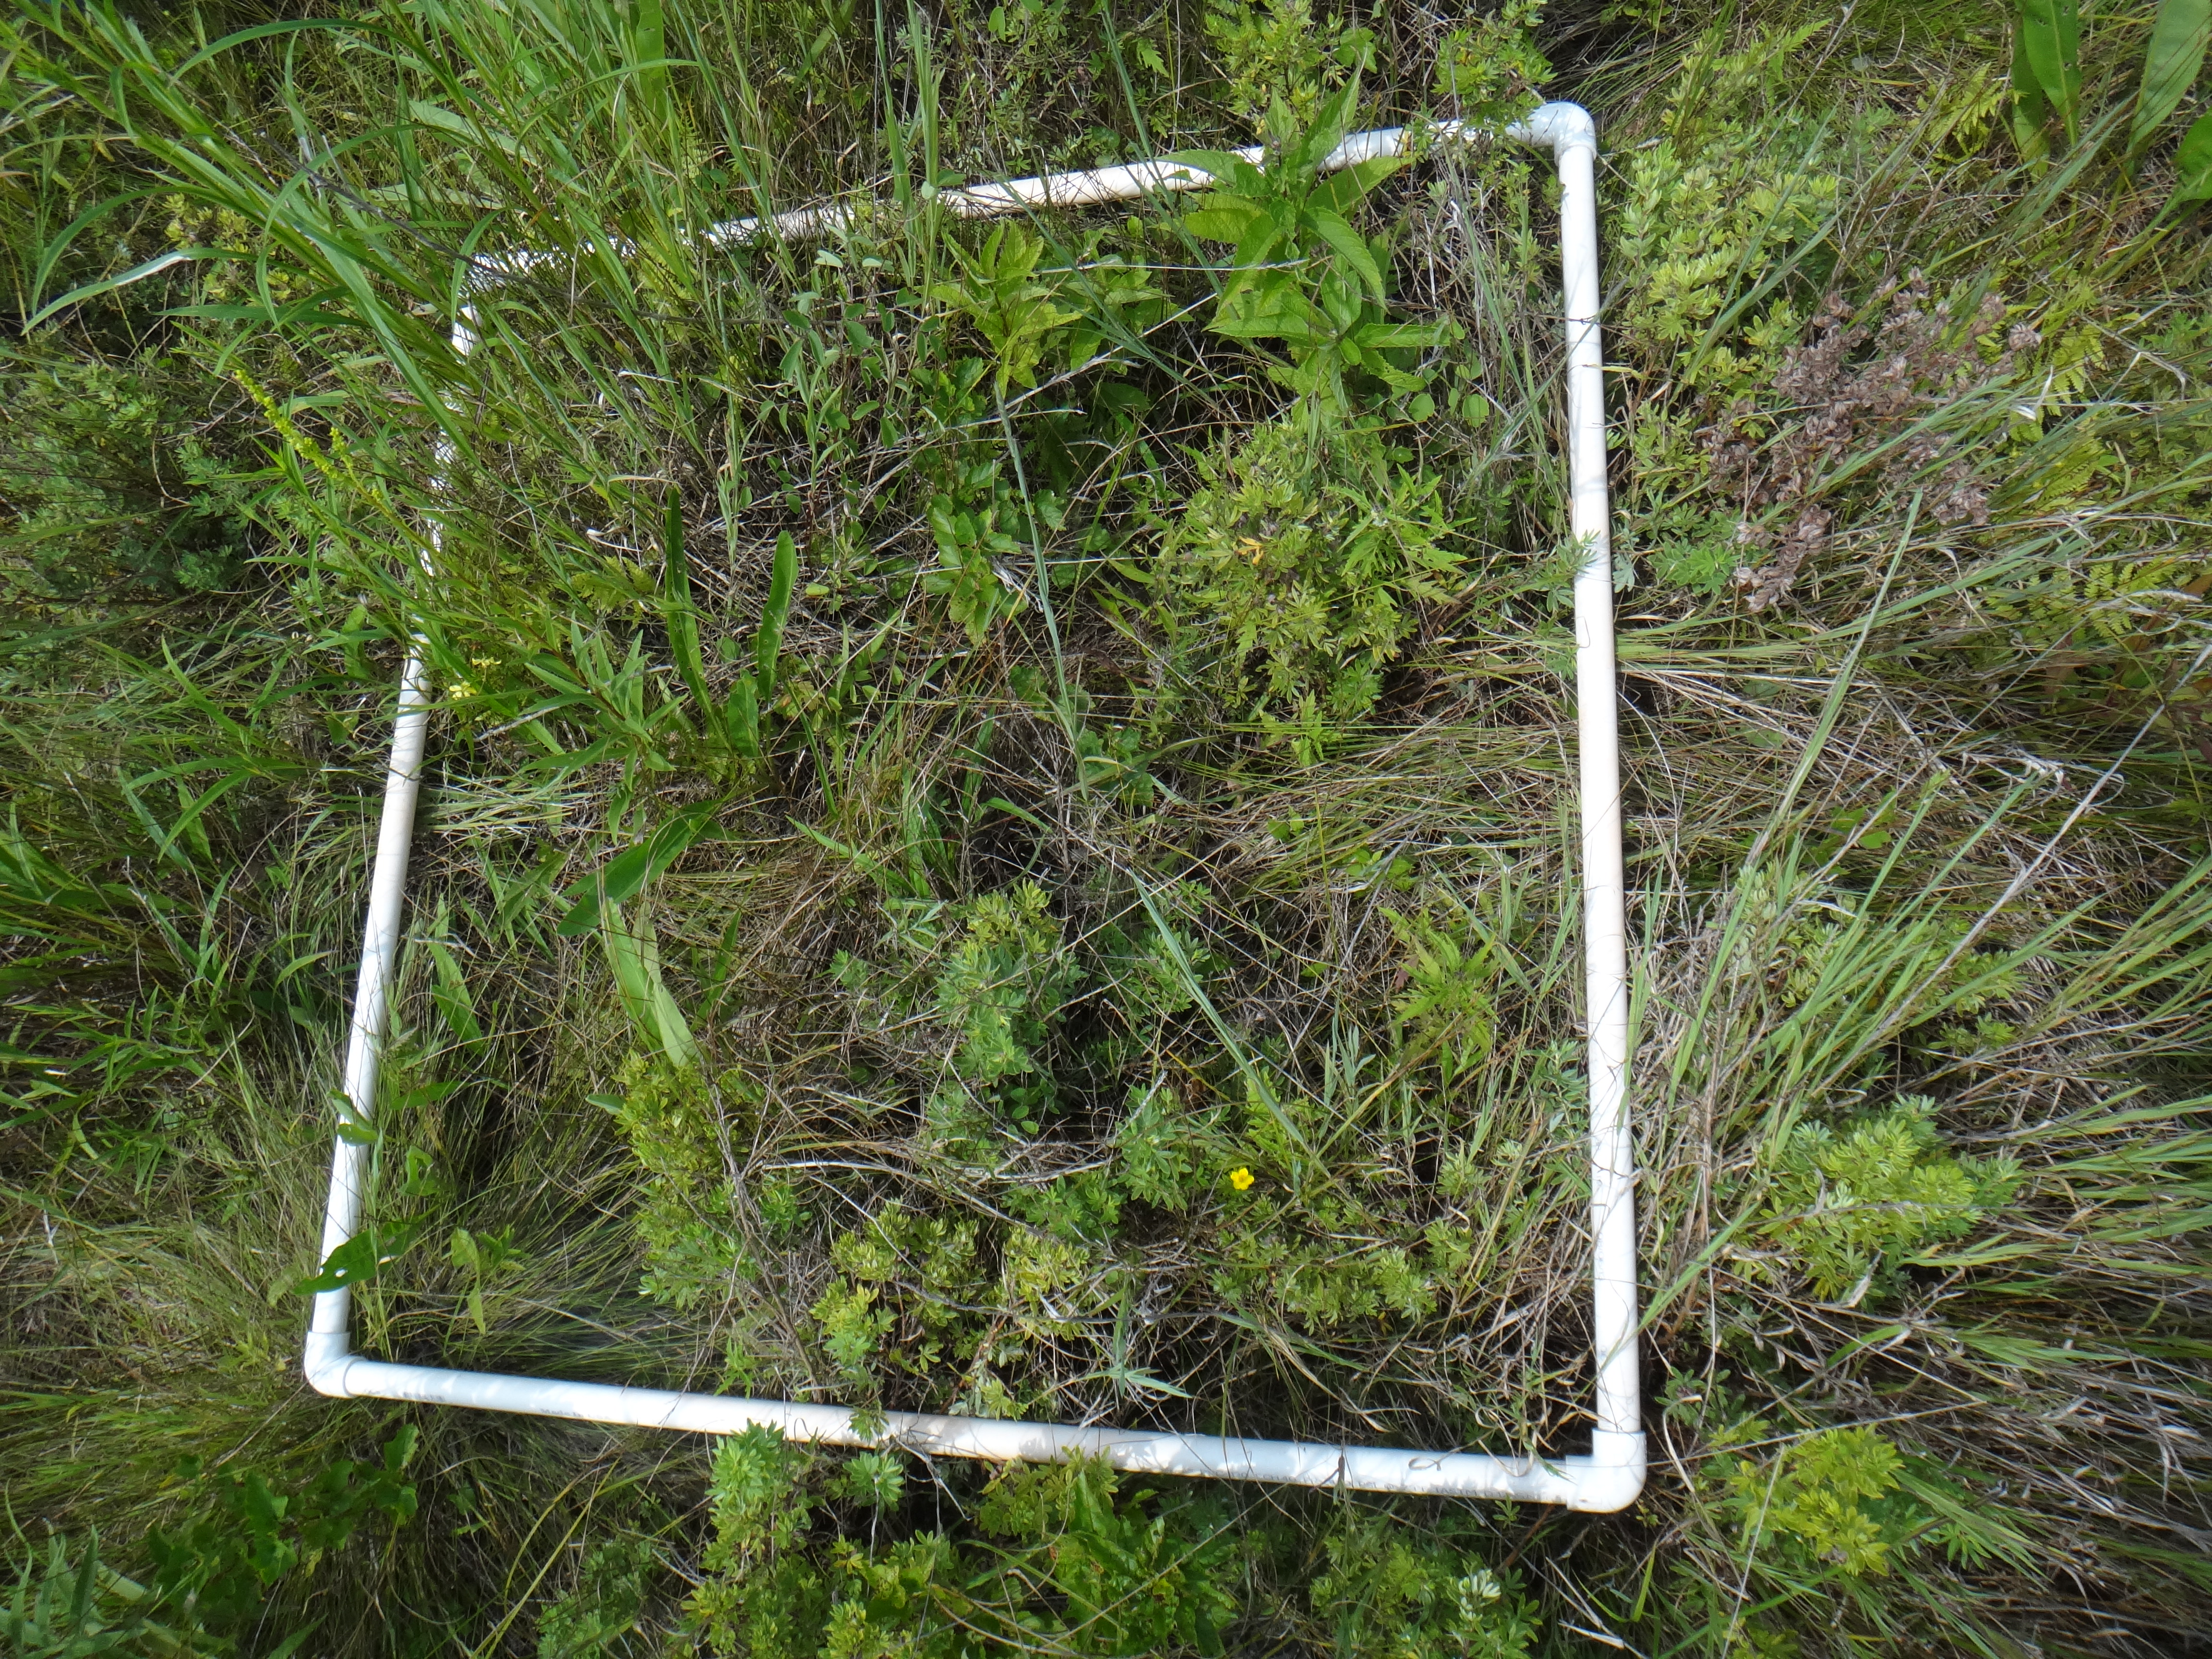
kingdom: Plantae
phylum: Tracheophyta
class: Polypodiopsida
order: Polypodiales
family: Thelypteridaceae
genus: Thelypteris
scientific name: Thelypteris palustris
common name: Marsh fern
